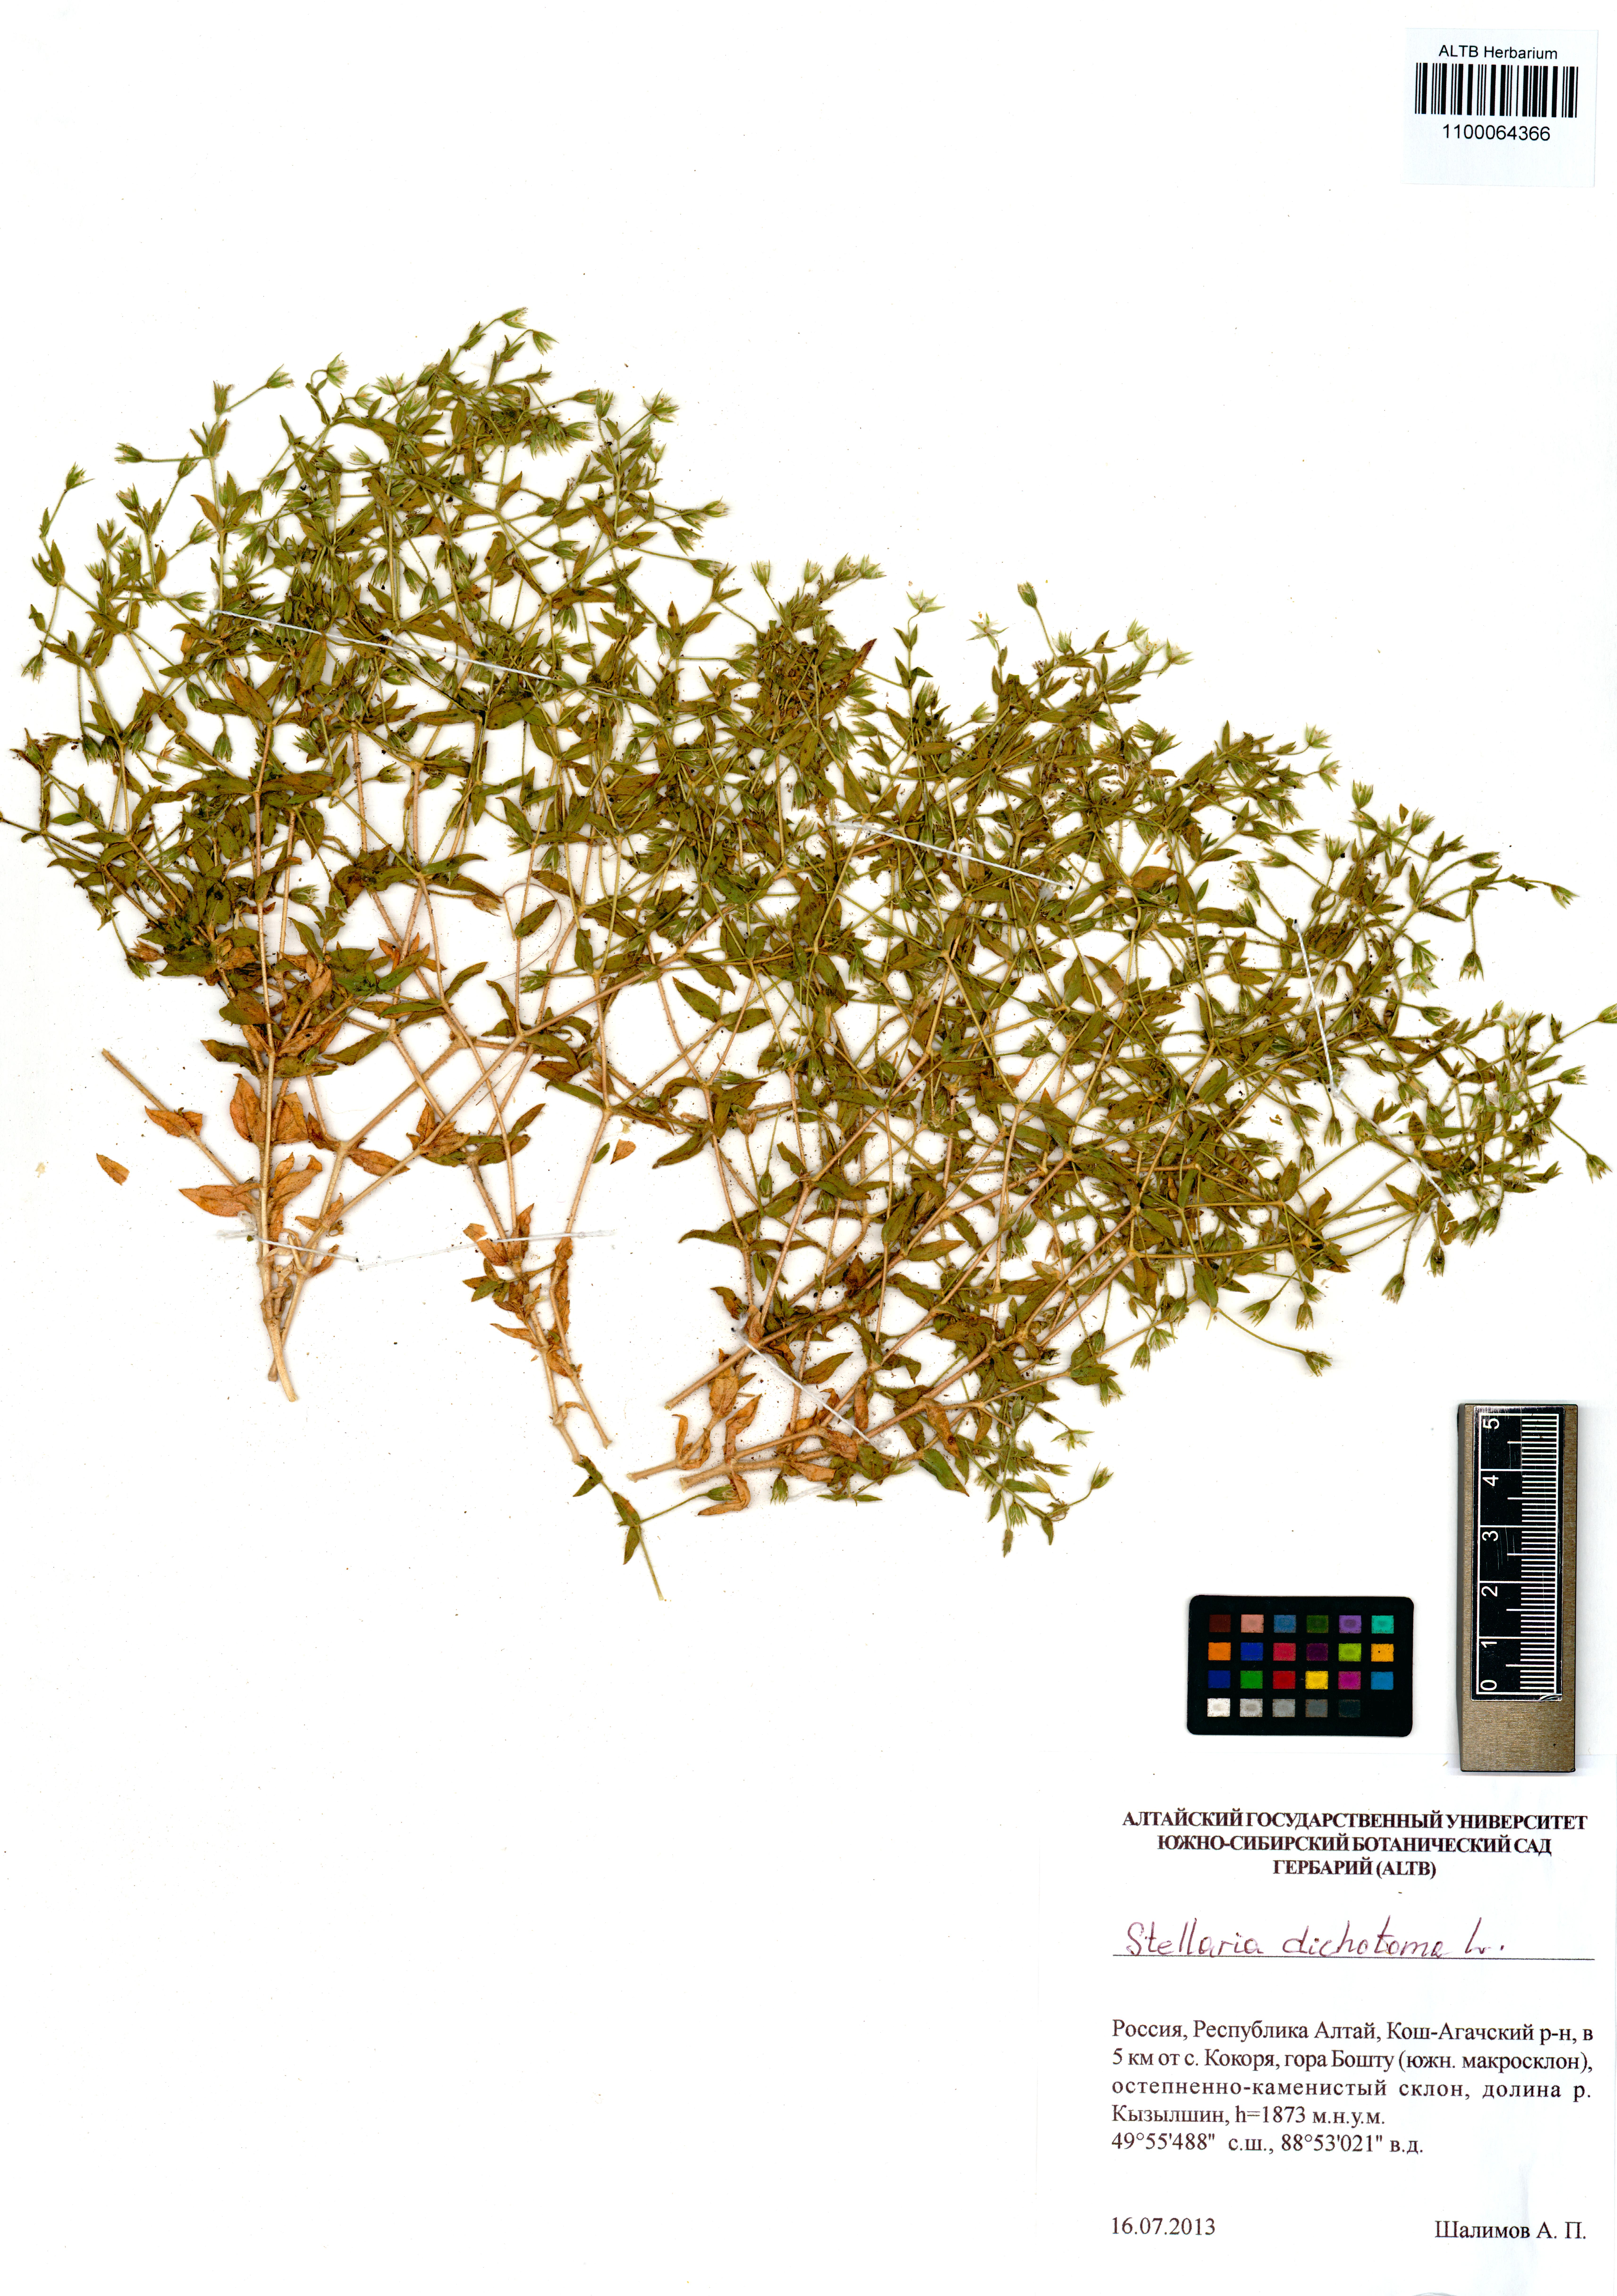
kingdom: Plantae
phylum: Tracheophyta
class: Magnoliopsida
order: Caryophyllales
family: Caryophyllaceae
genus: Mesostemma
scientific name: Mesostemma dichotomum
